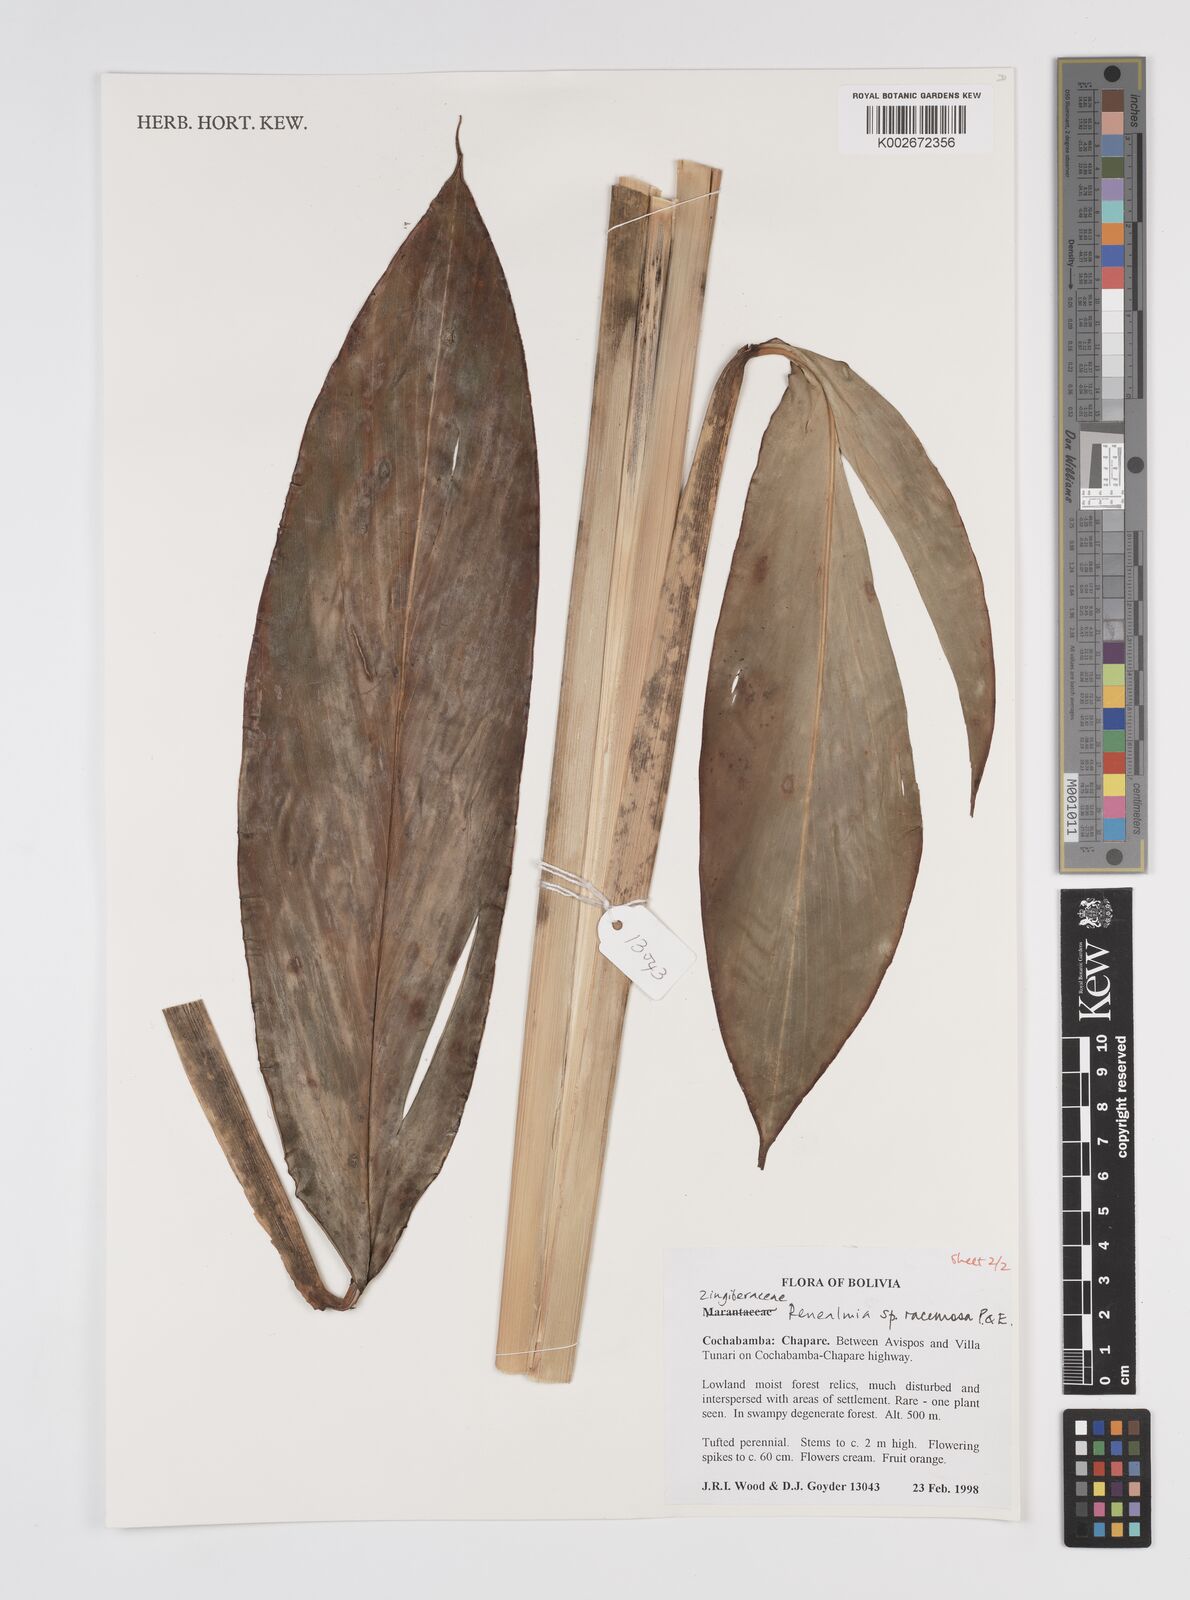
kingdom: Plantae
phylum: Tracheophyta
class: Liliopsida
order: Zingiberales
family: Zingiberaceae
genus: Renealmia
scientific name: Renealmia racemosa
